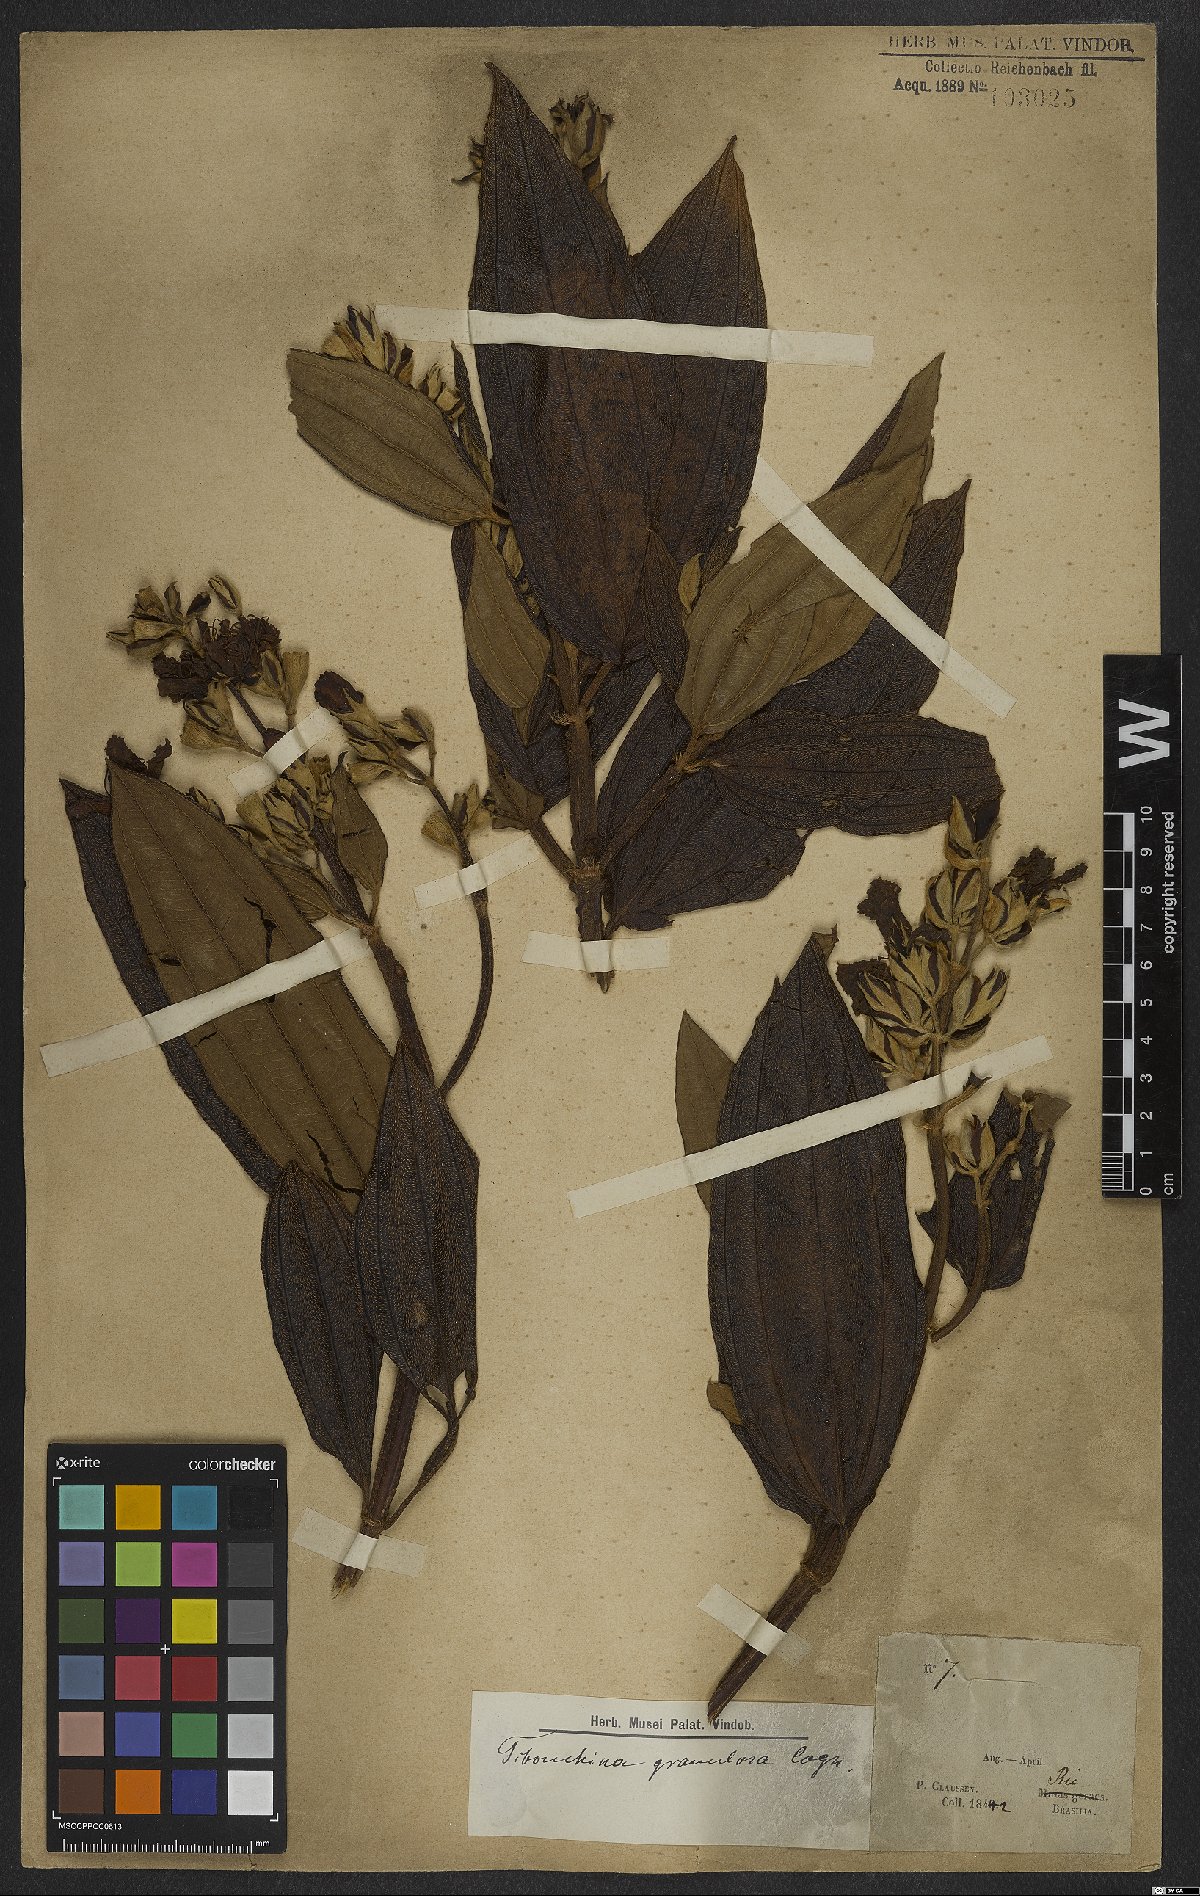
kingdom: Plantae
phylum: Tracheophyta
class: Magnoliopsida
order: Myrtales
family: Melastomataceae
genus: Pleroma
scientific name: Pleroma granulosum
